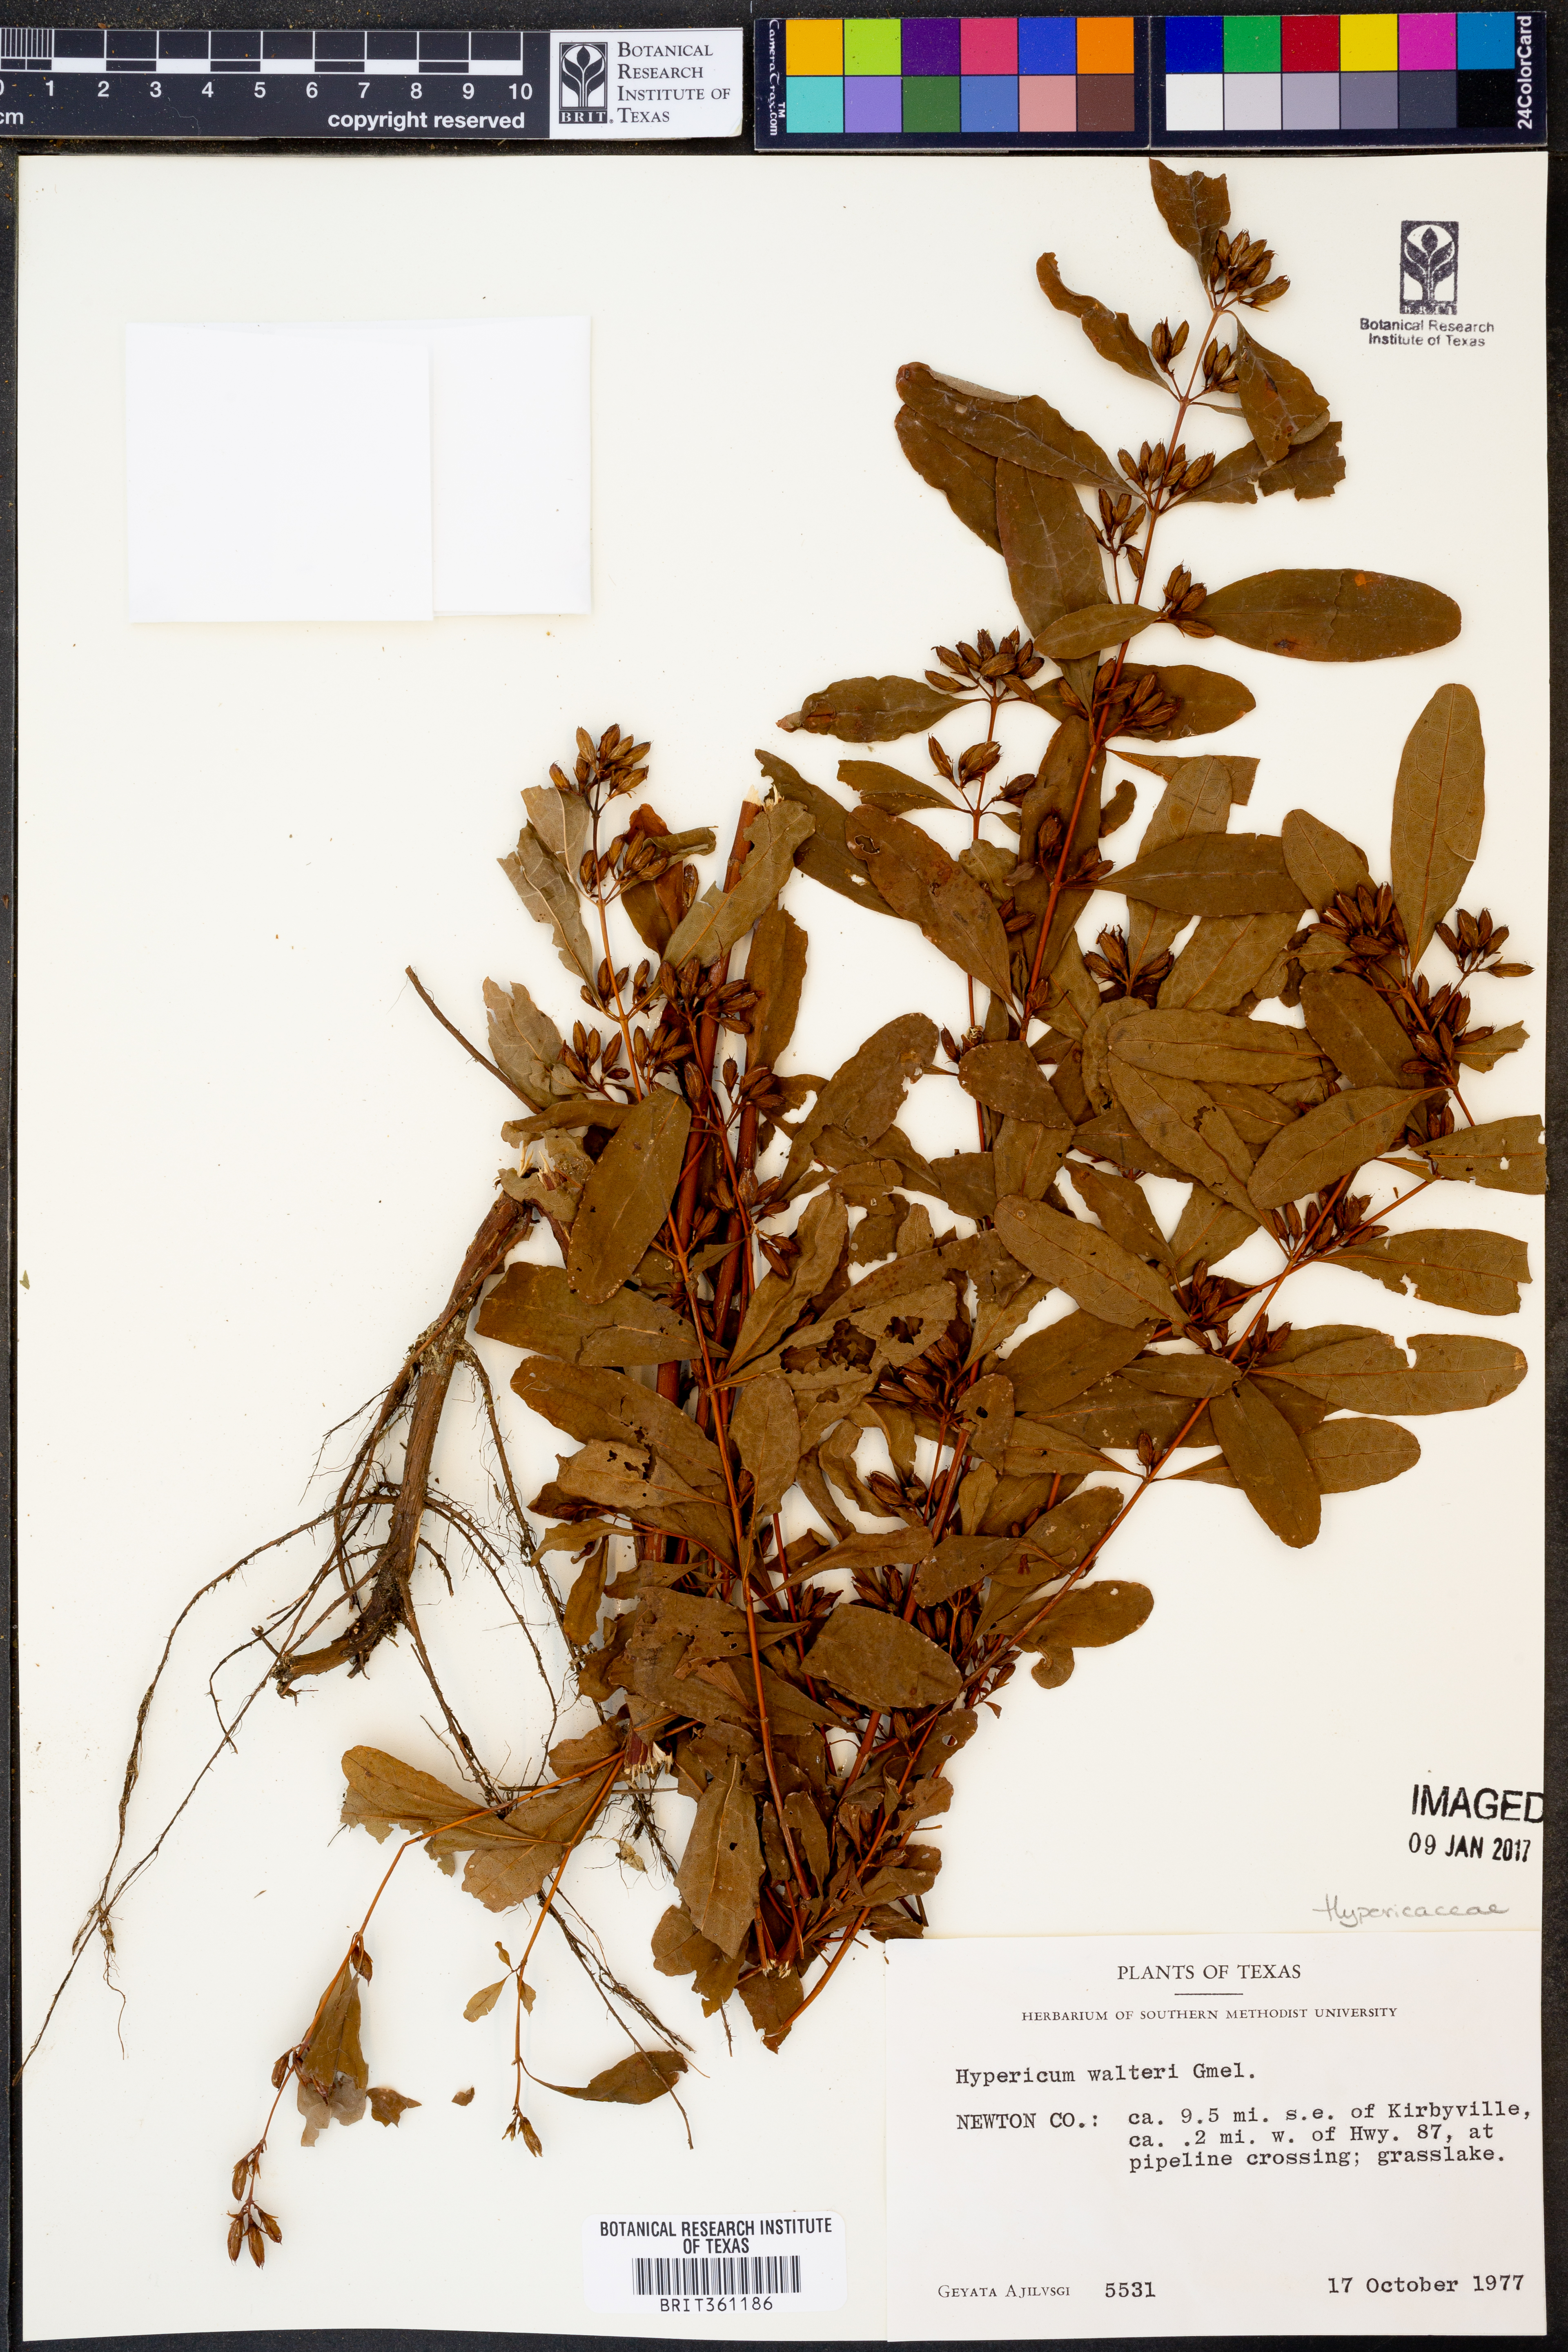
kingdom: Plantae
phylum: Tracheophyta
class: Magnoliopsida
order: Malpighiales
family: Hypericaceae
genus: Triadenum
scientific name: Triadenum walteri
